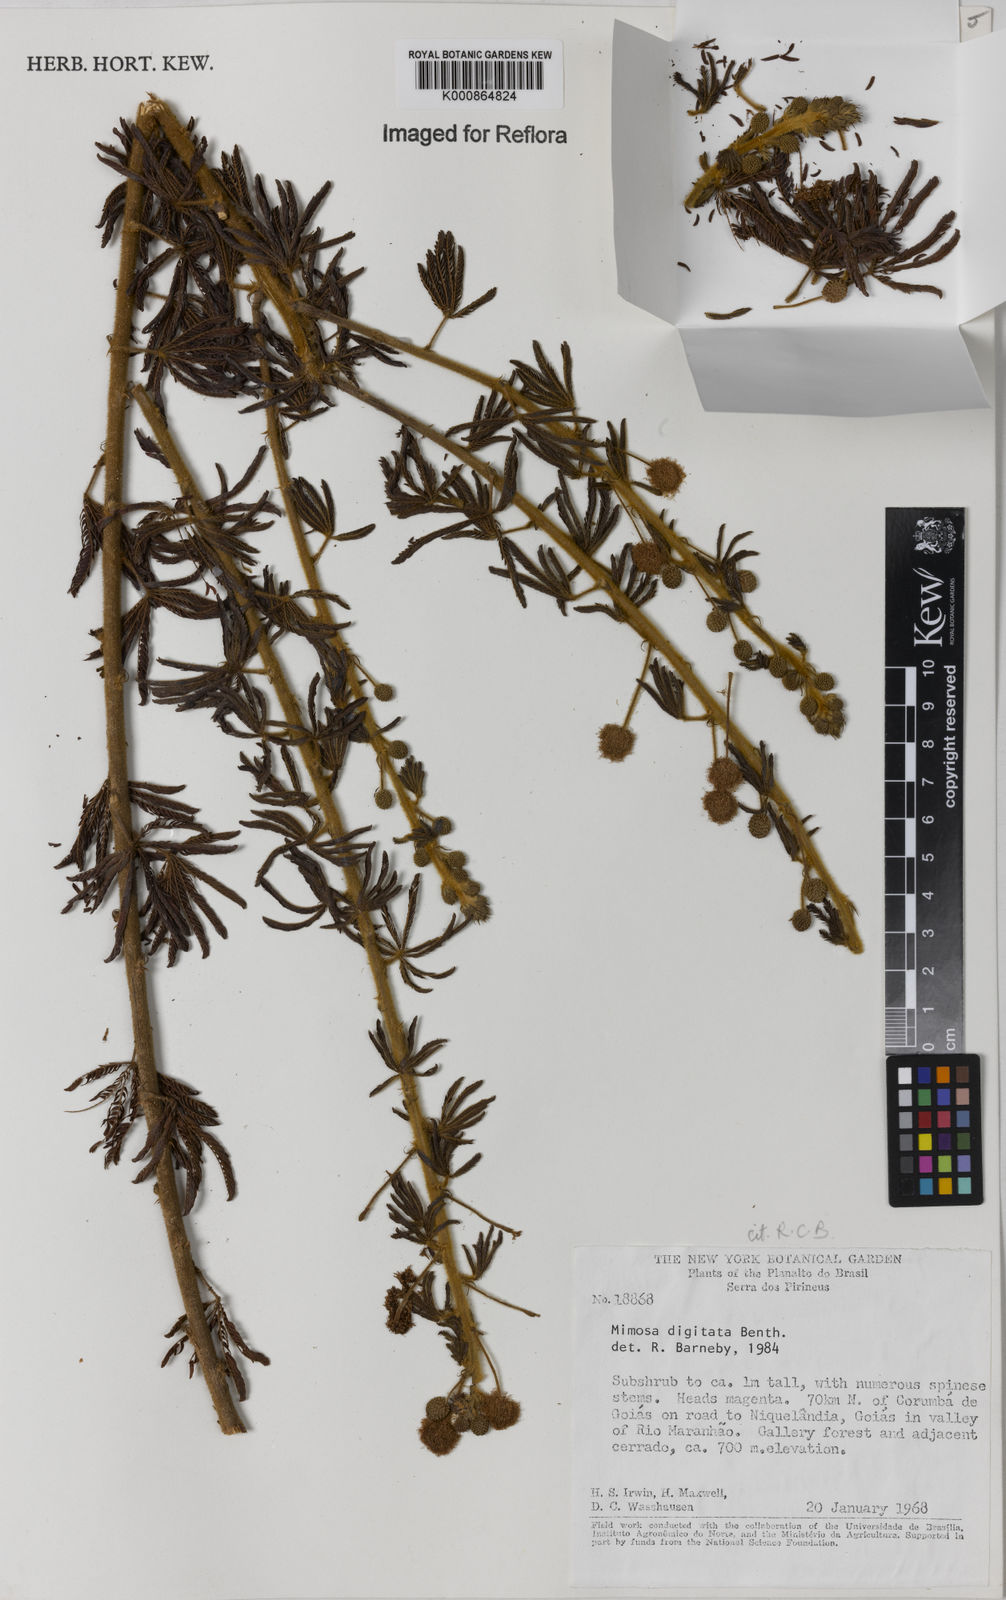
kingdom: Plantae
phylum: Tracheophyta
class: Magnoliopsida
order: Fabales
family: Fabaceae
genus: Mimosa
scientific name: Mimosa digitata
